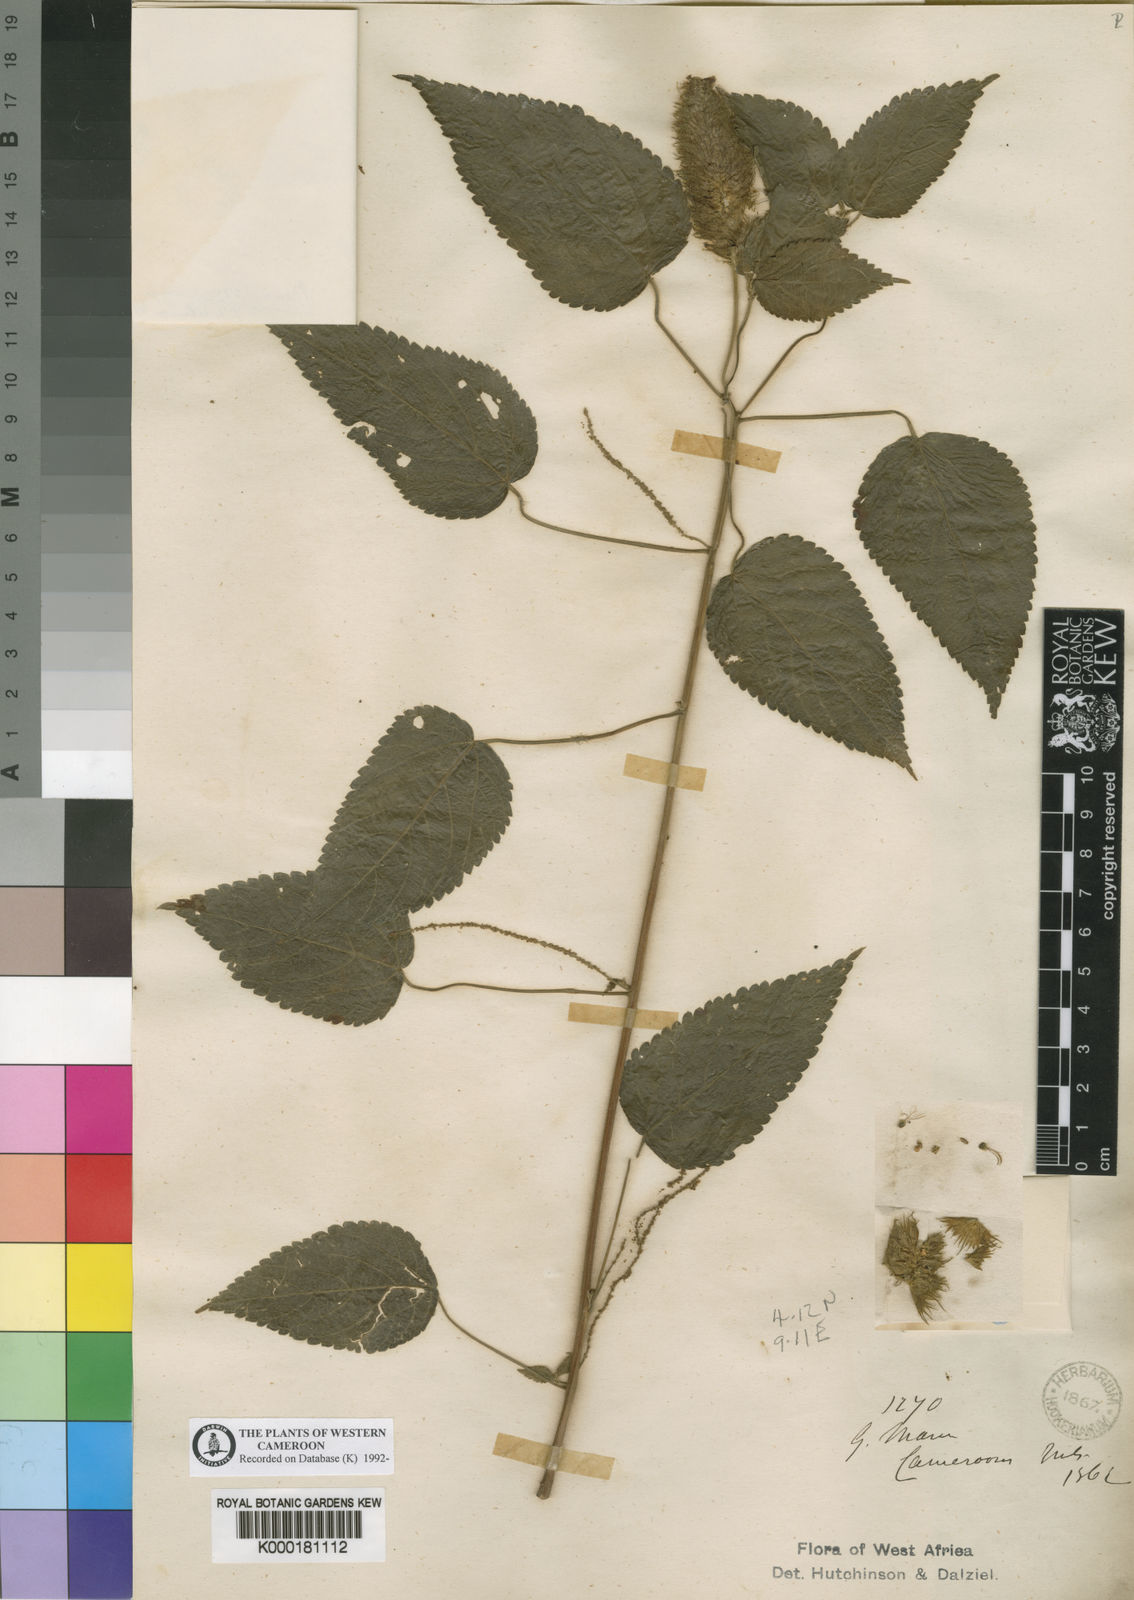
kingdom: Plantae
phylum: Tracheophyta
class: Magnoliopsida
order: Malpighiales
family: Euphorbiaceae
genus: Acalypha
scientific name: Acalypha
